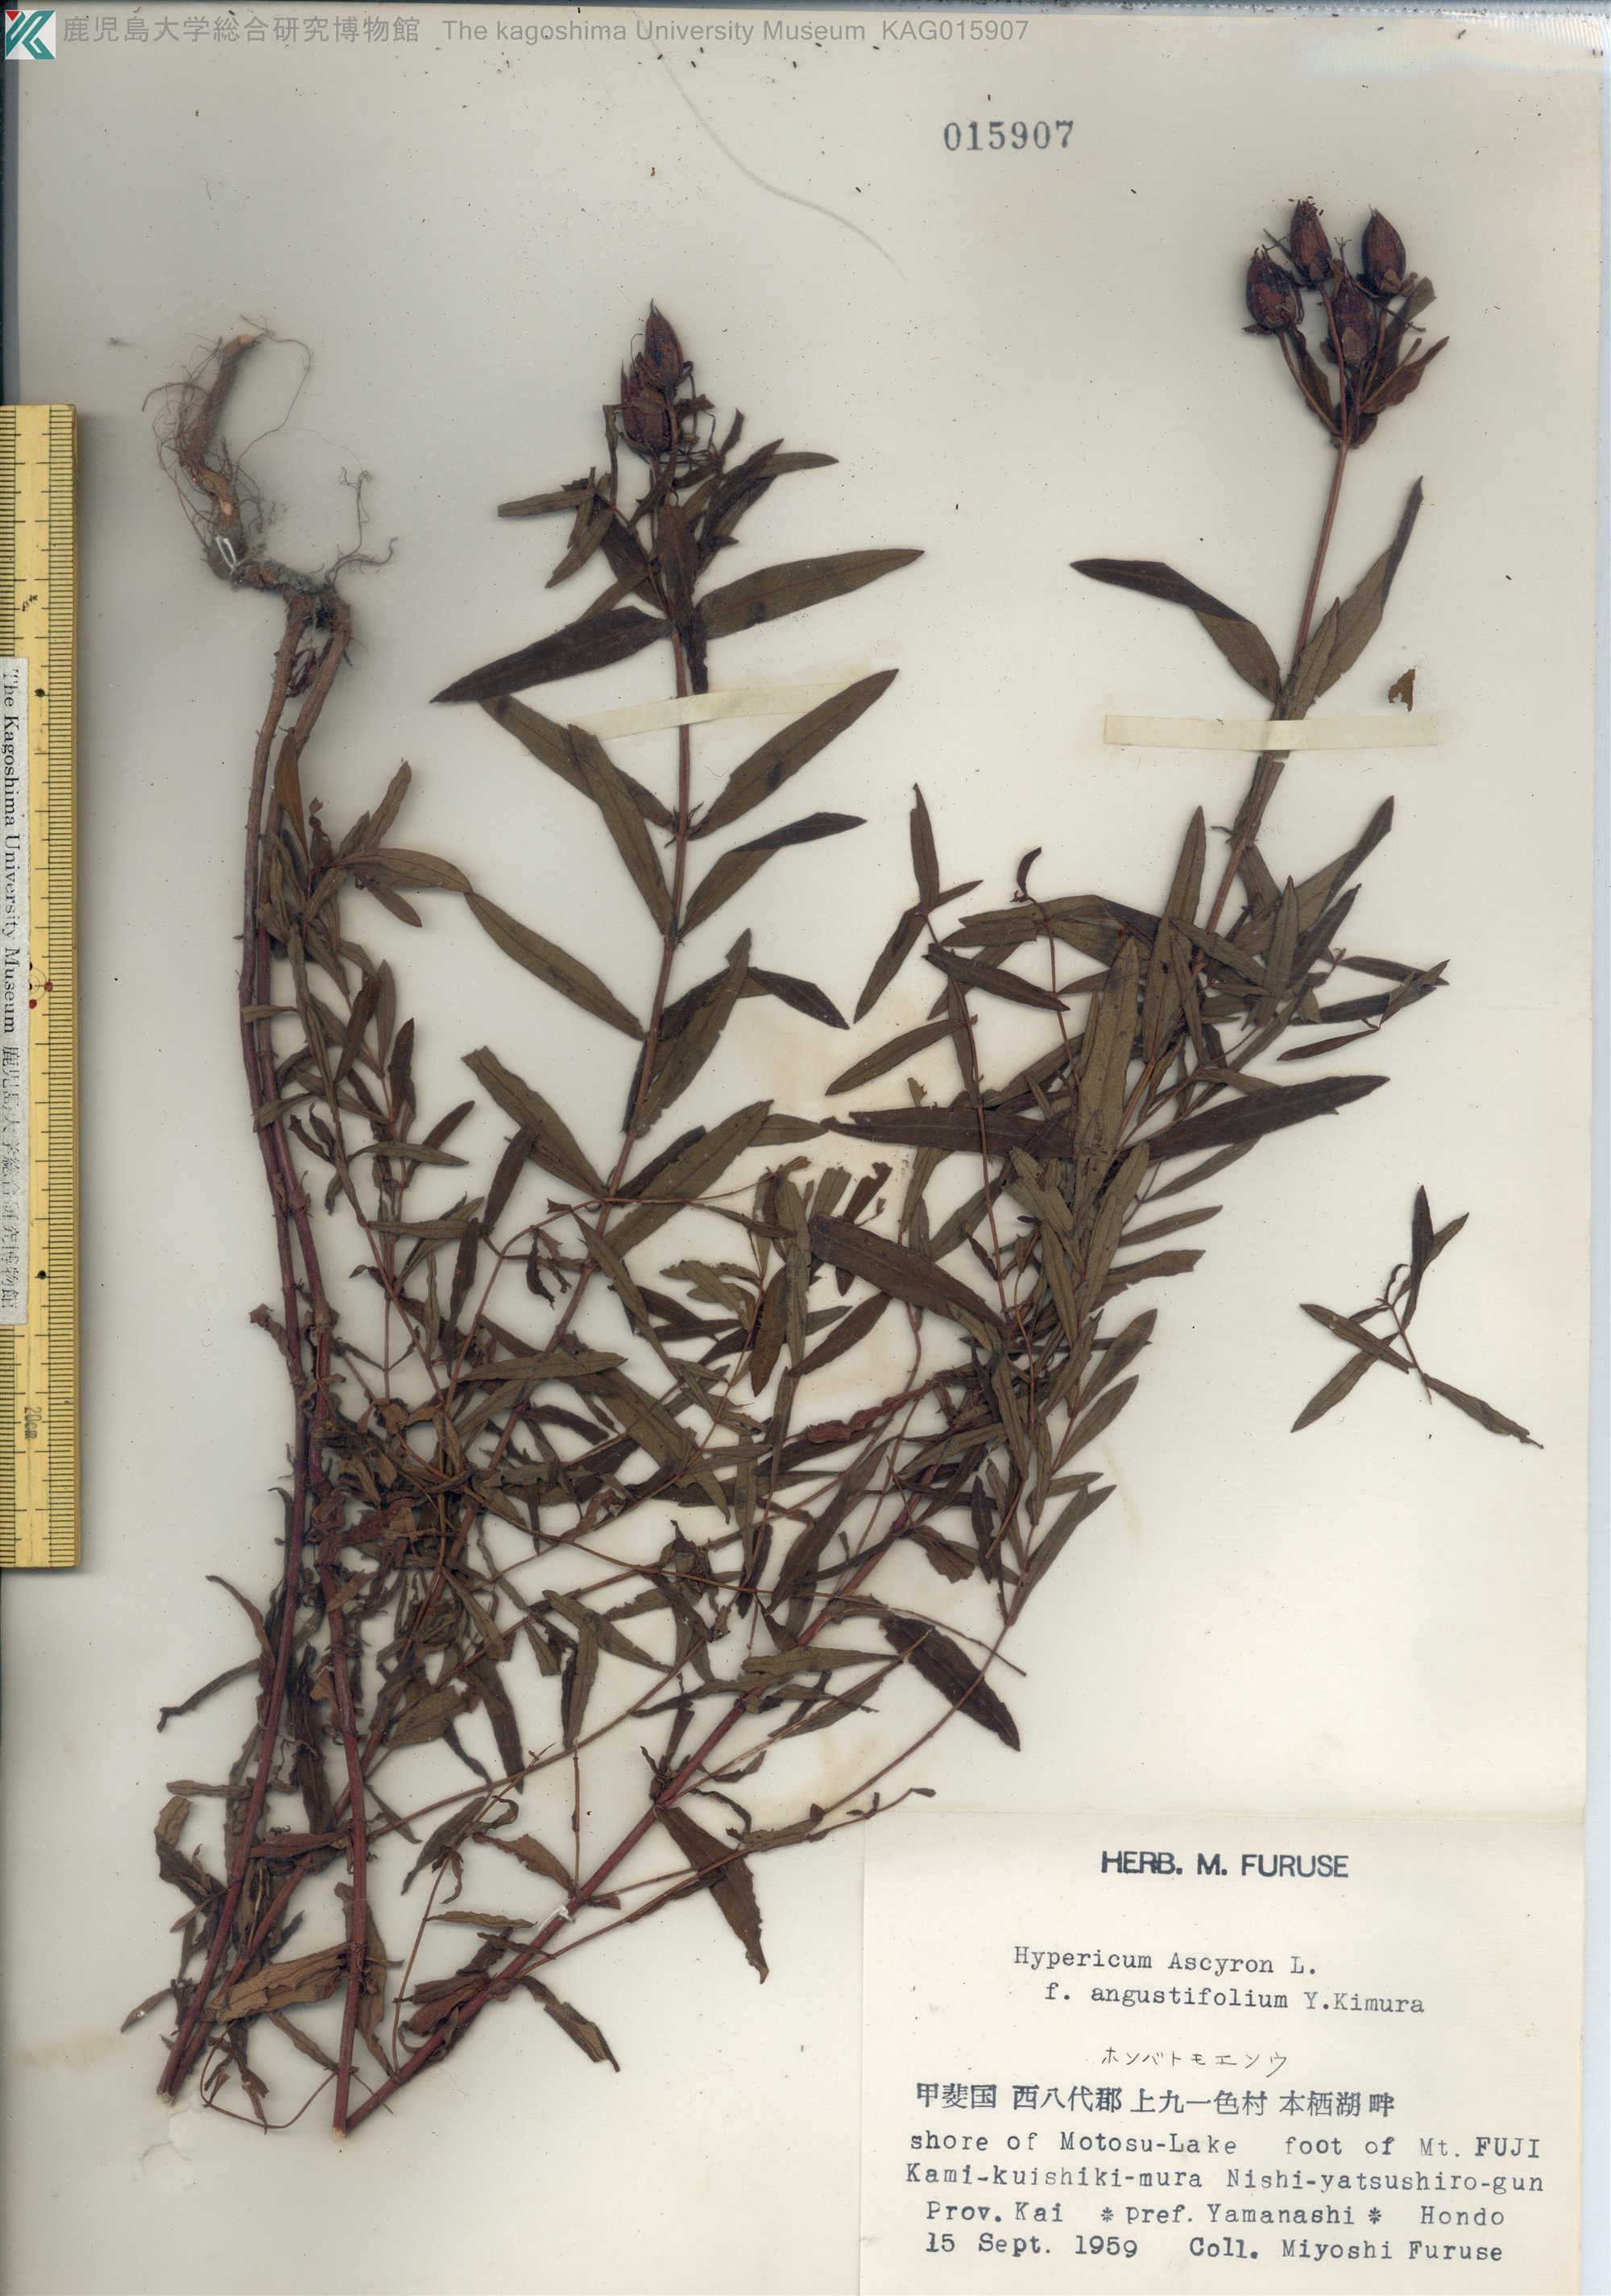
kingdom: Plantae
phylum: Tracheophyta
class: Magnoliopsida
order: Malpighiales
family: Hypericaceae
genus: Hypericum
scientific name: Hypericum ascyron
